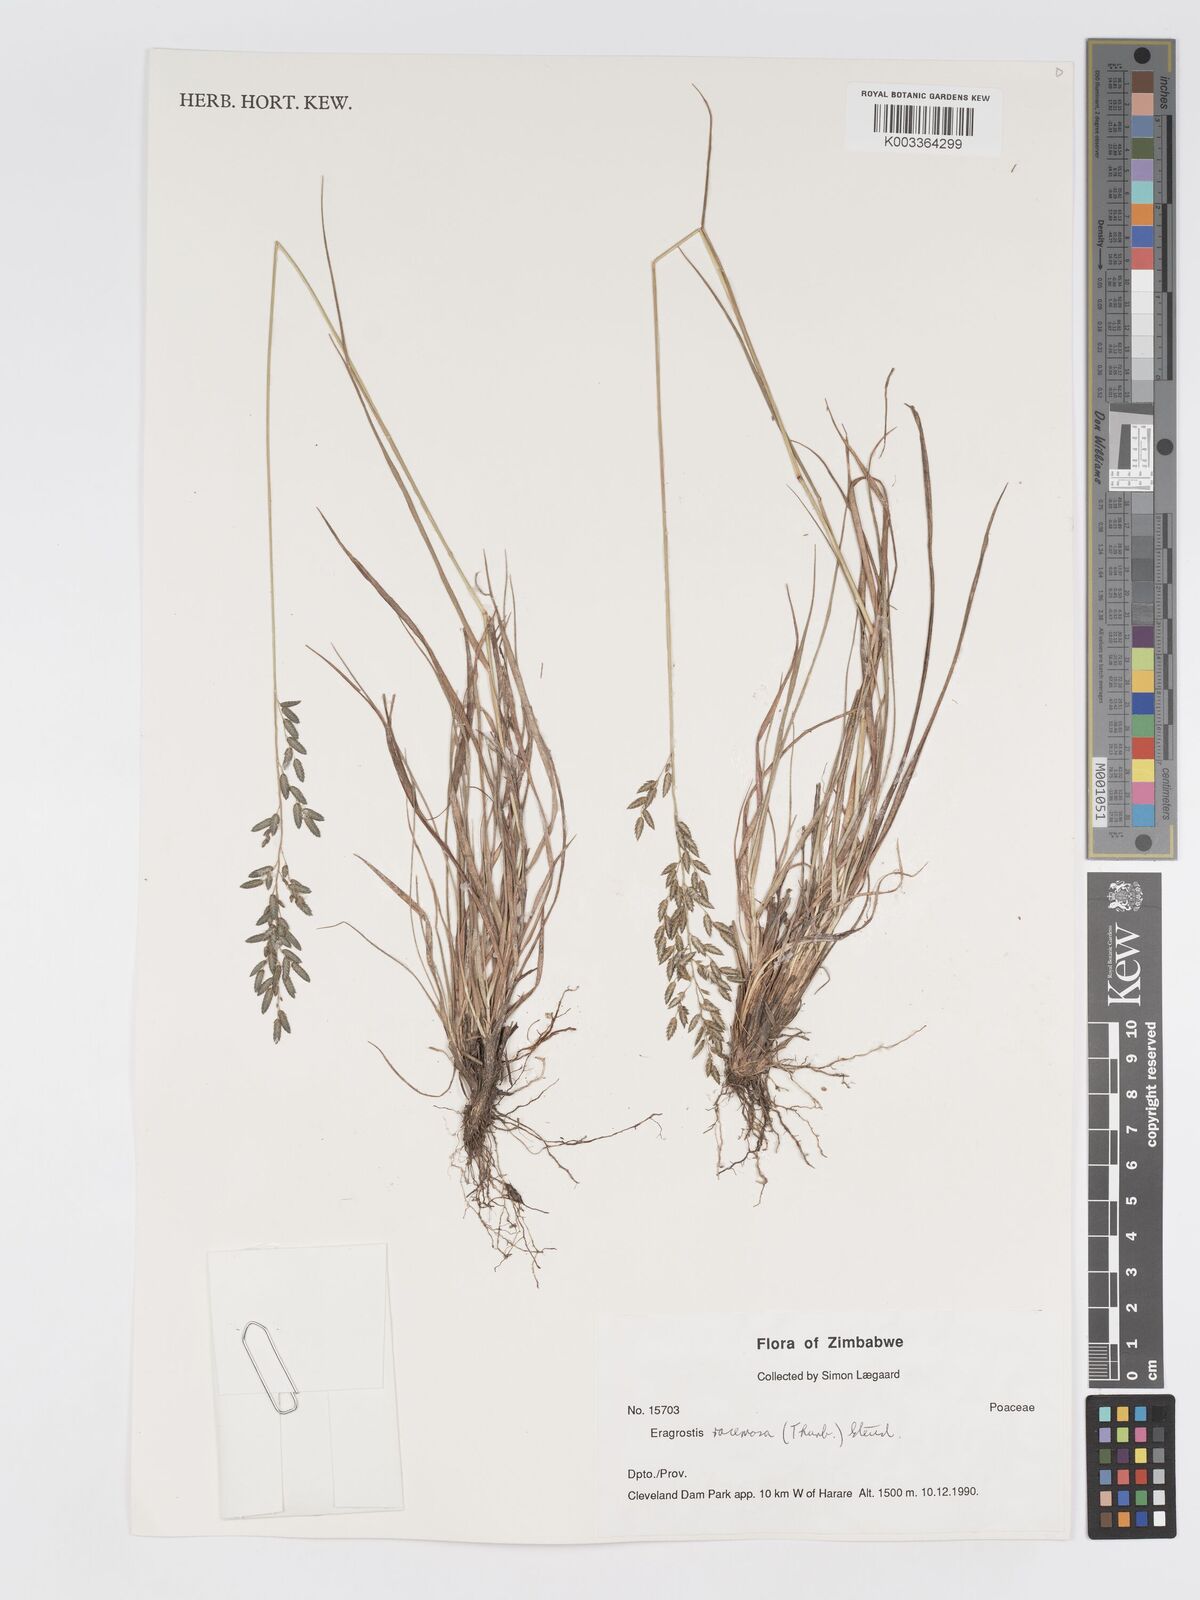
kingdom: Plantae
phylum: Tracheophyta
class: Liliopsida
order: Poales
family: Poaceae
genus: Eragrostis
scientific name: Eragrostis racemosa
